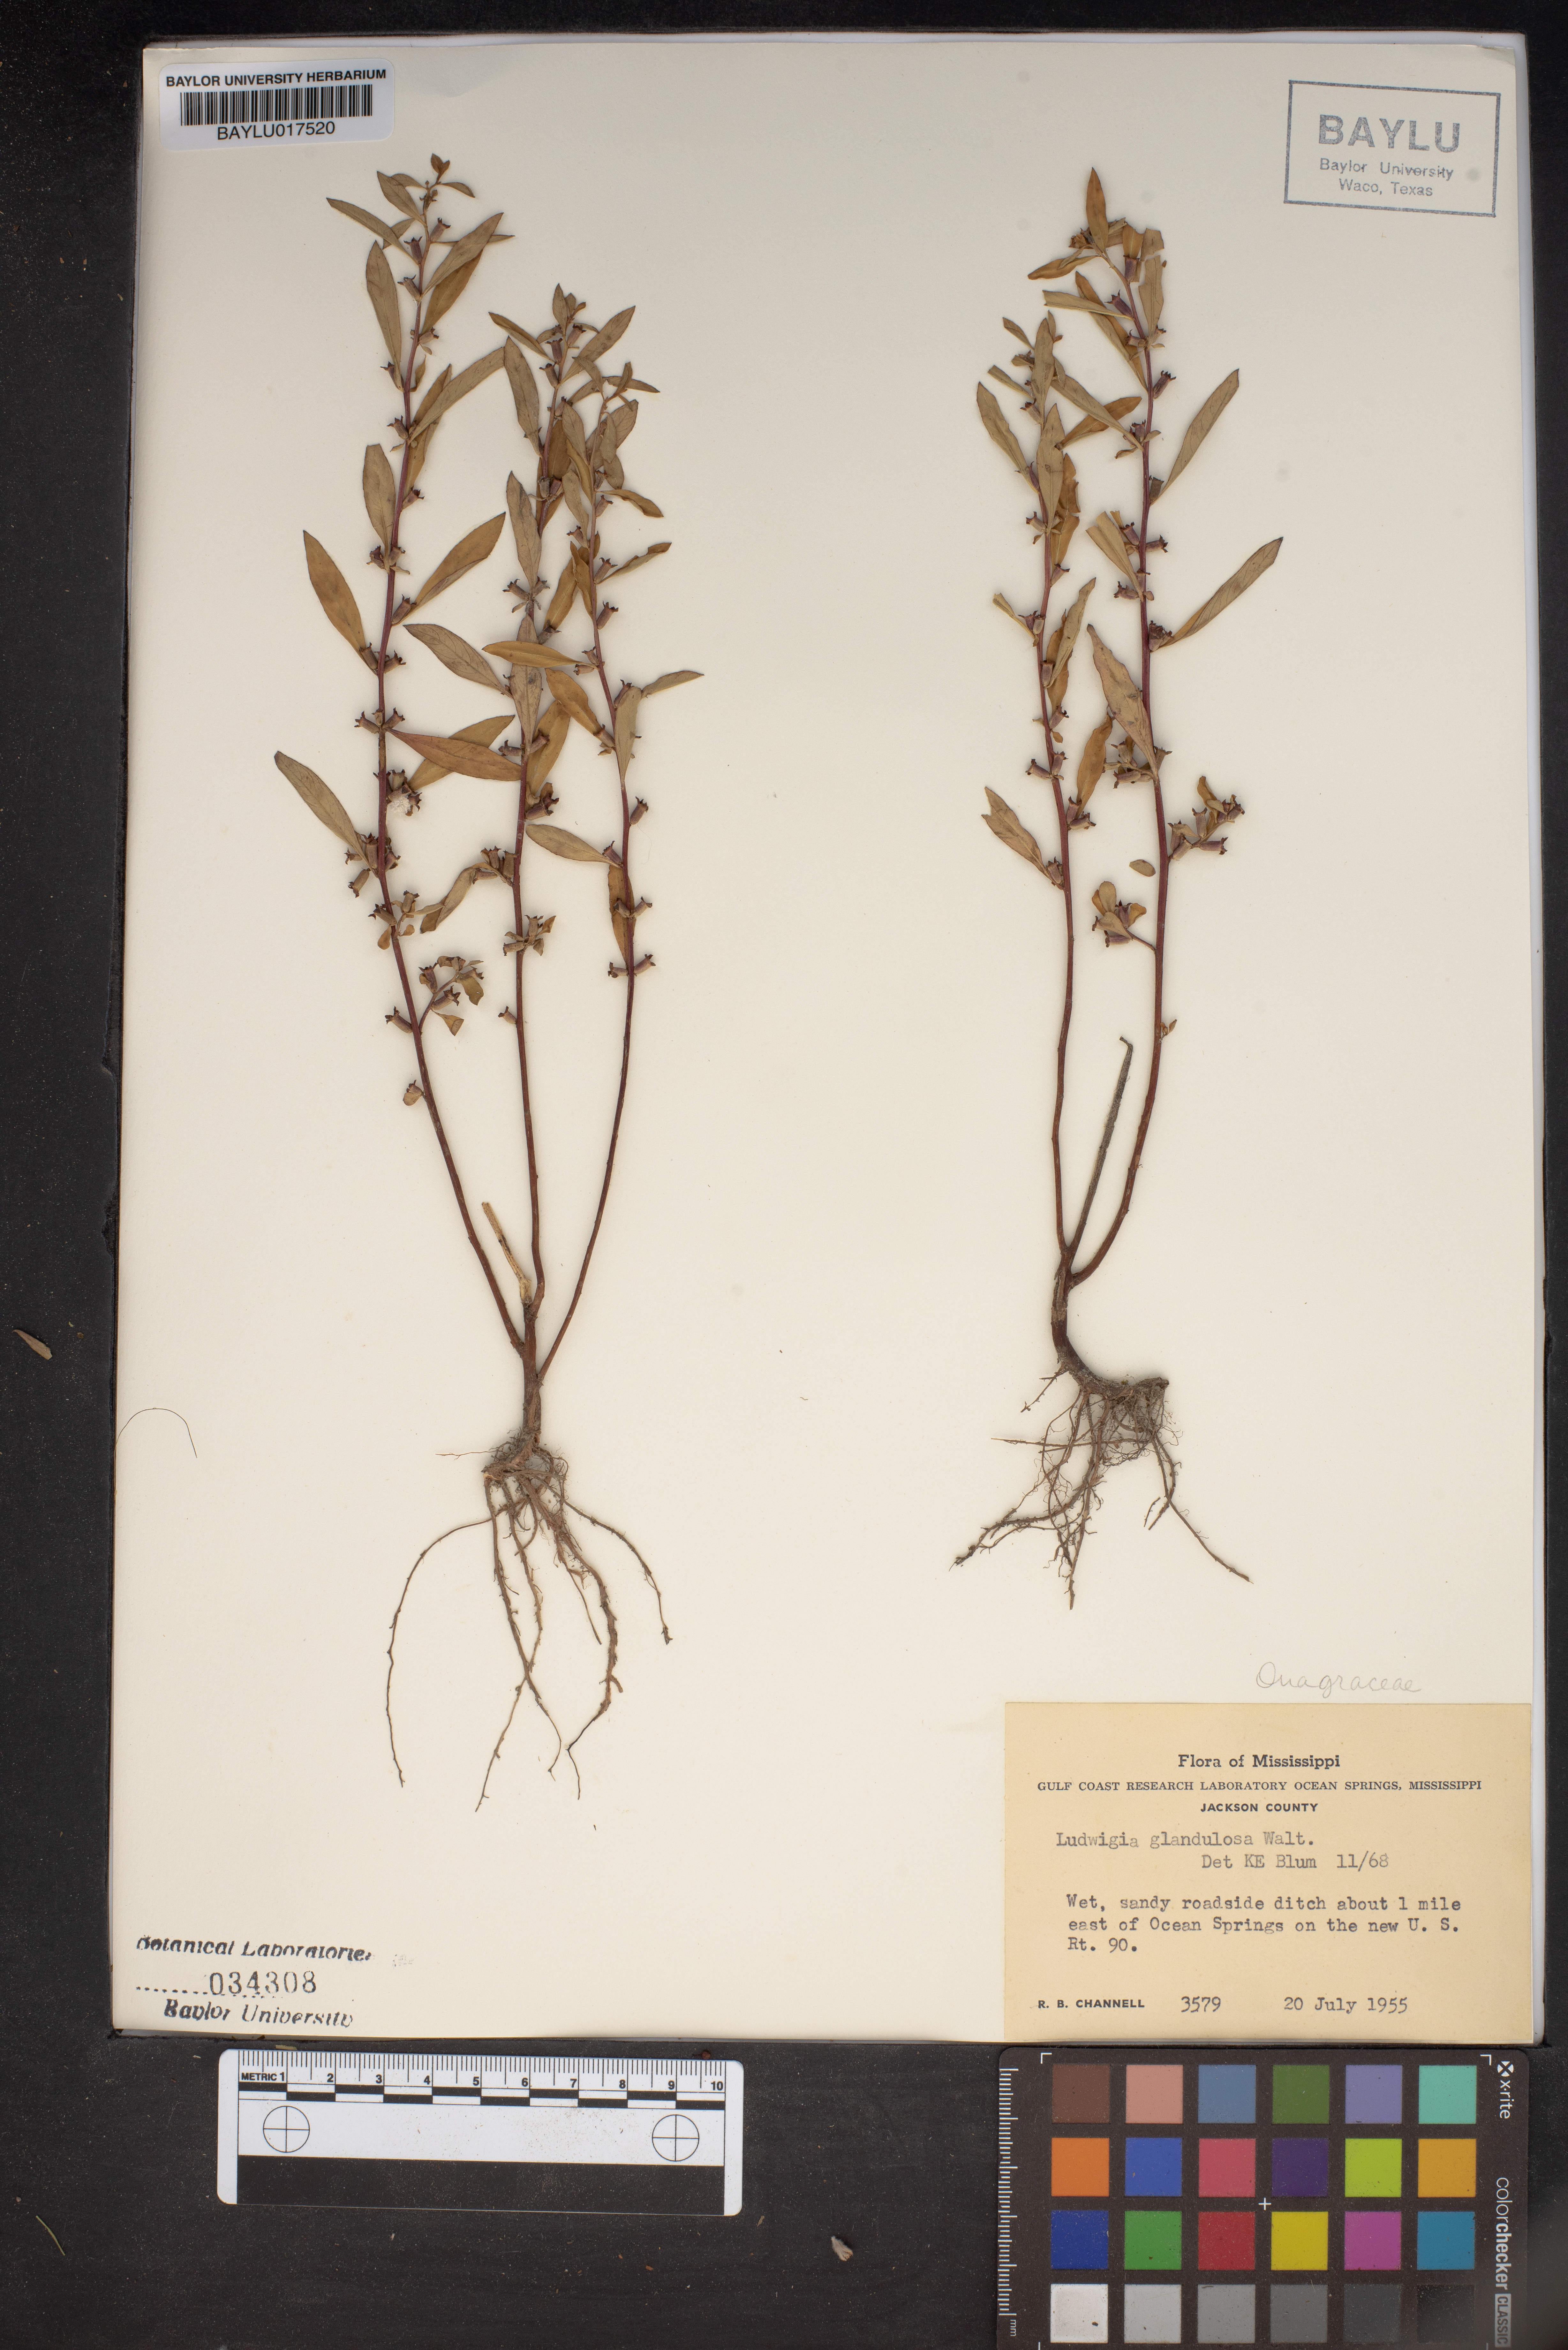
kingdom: Plantae
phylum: Tracheophyta
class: Magnoliopsida
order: Myrtales
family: Onagraceae
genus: Ludwigia
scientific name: Ludwigia glandulosa
